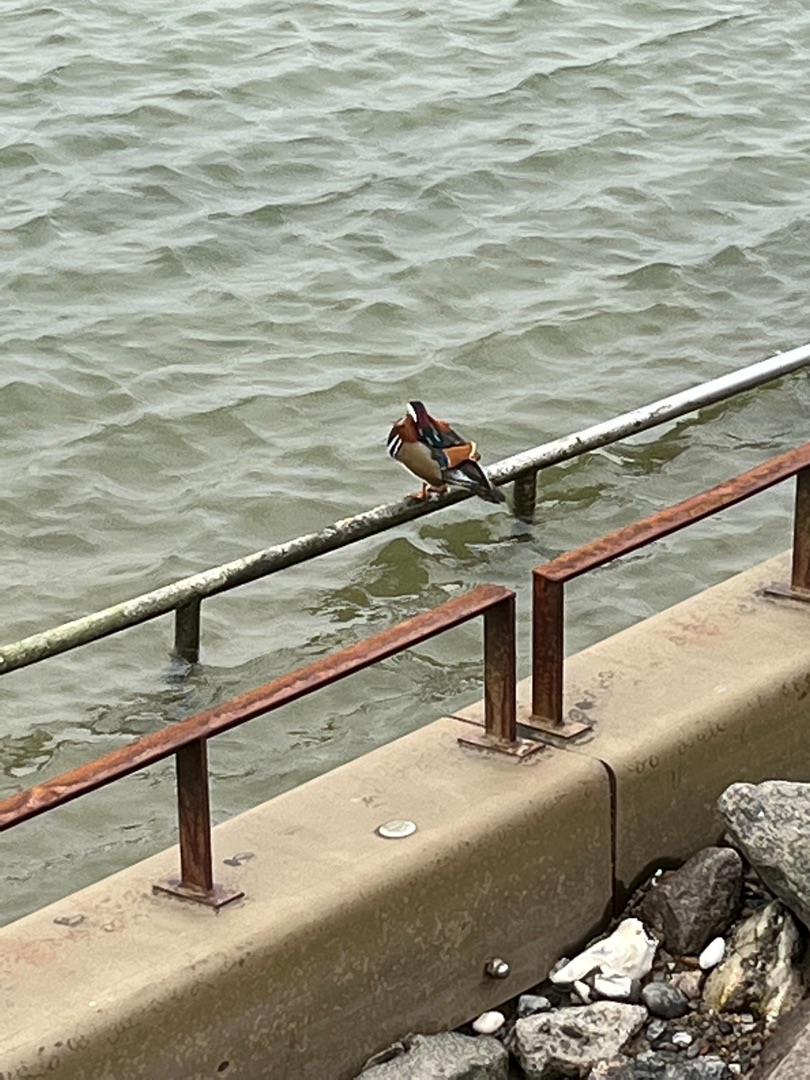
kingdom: Animalia
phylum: Chordata
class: Aves
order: Anseriformes
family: Anatidae
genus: Aix
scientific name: Aix galericulata
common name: Mandarinand
